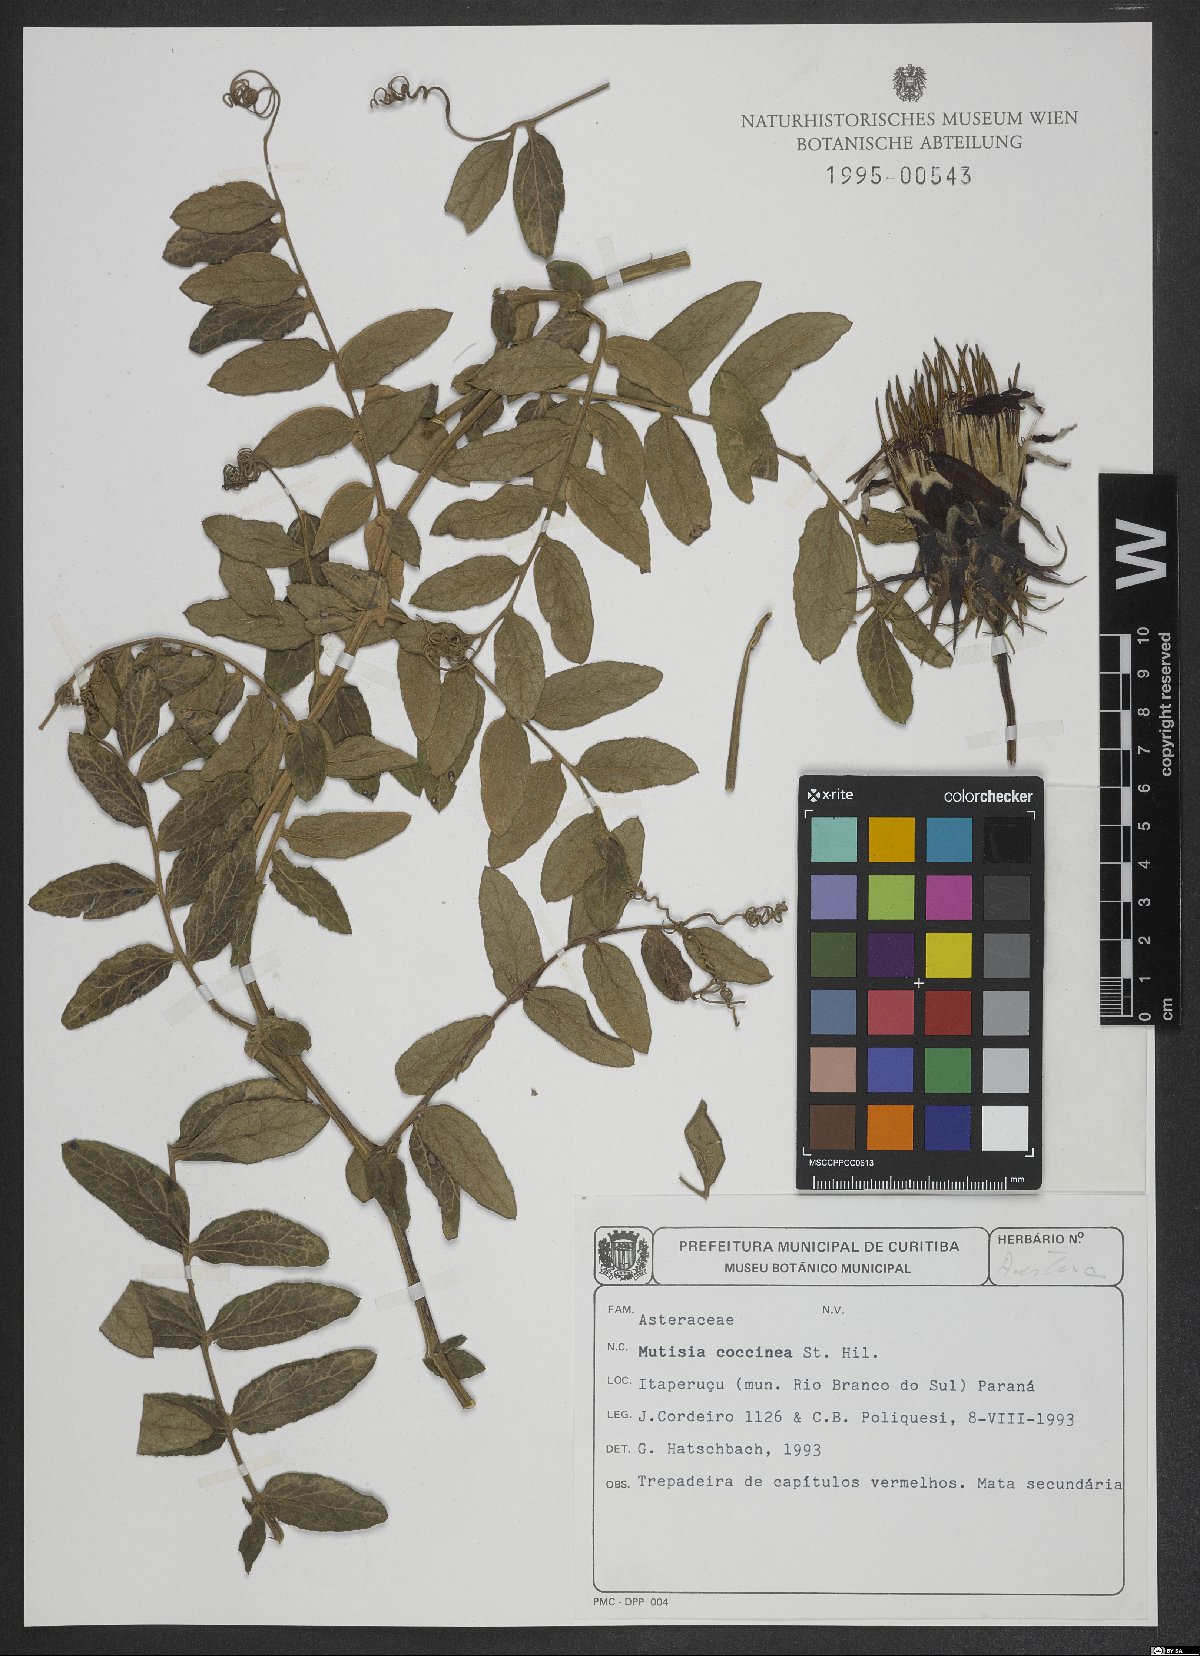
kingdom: Plantae
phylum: Tracheophyta
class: Magnoliopsida
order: Asterales
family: Asteraceae
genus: Mutisia
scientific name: Mutisia coccinea
